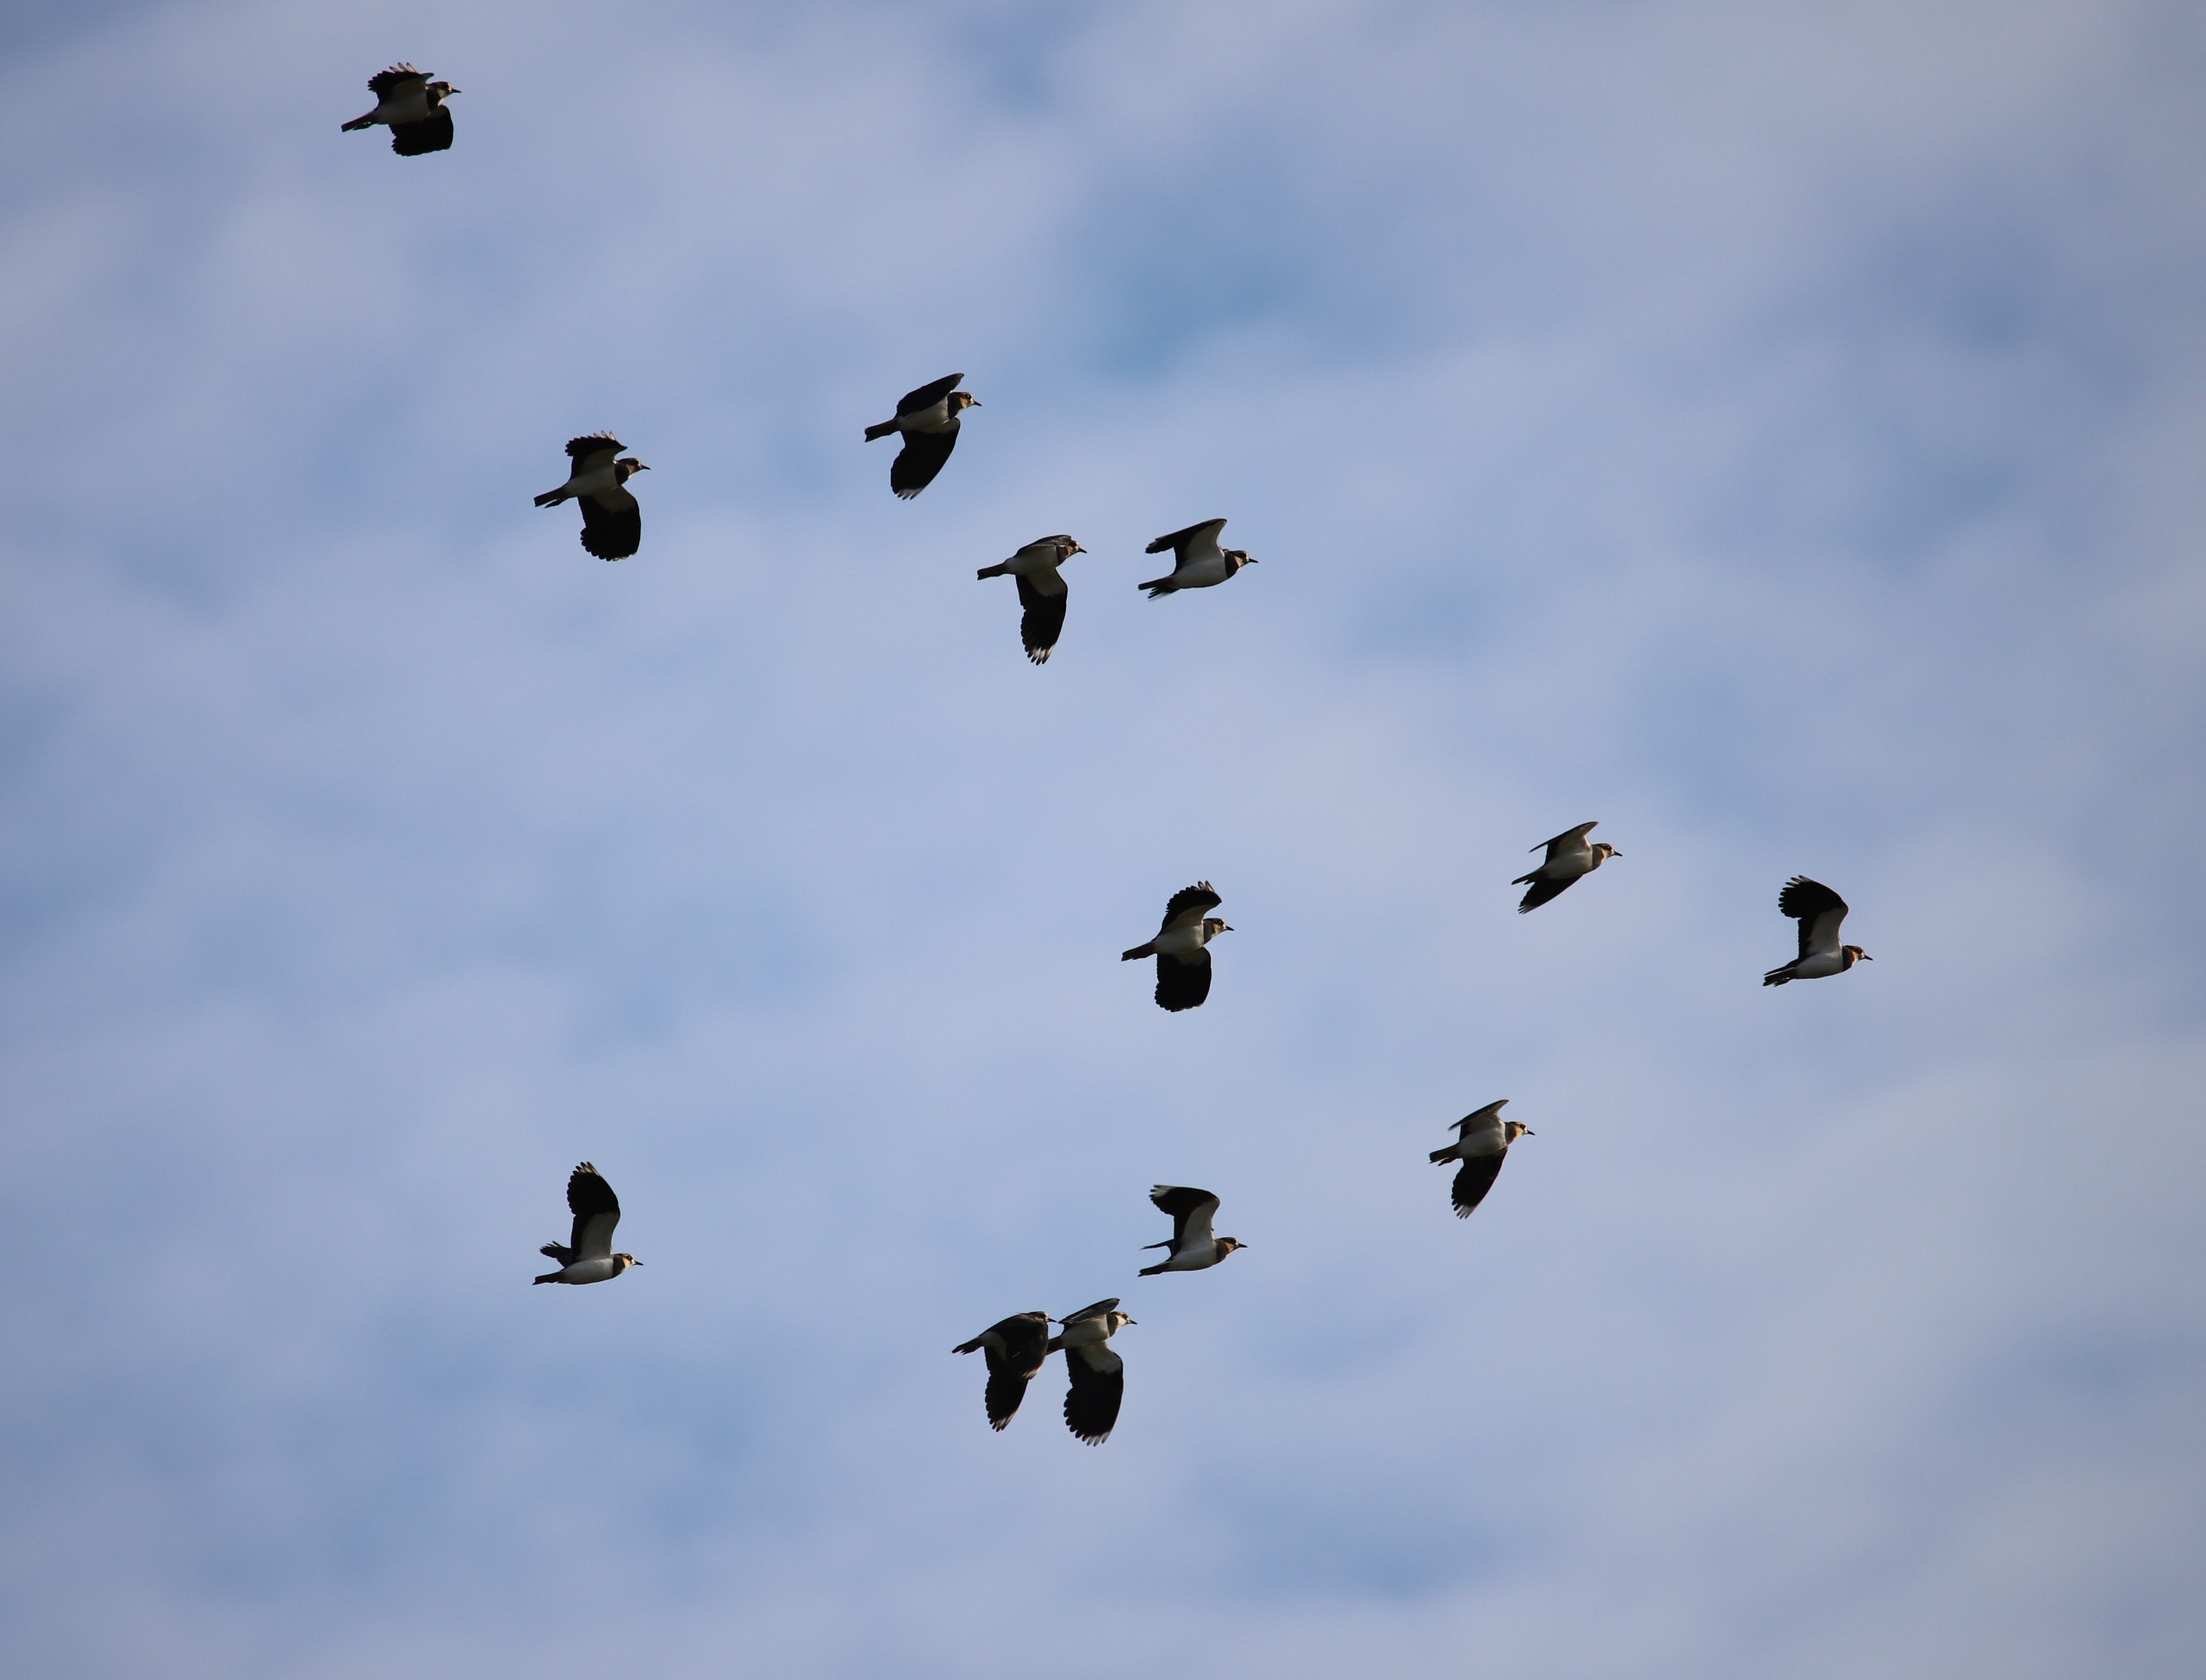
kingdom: Animalia
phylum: Chordata
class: Aves
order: Charadriiformes
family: Charadriidae
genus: Vanellus
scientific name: Vanellus vanellus
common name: Vibe
